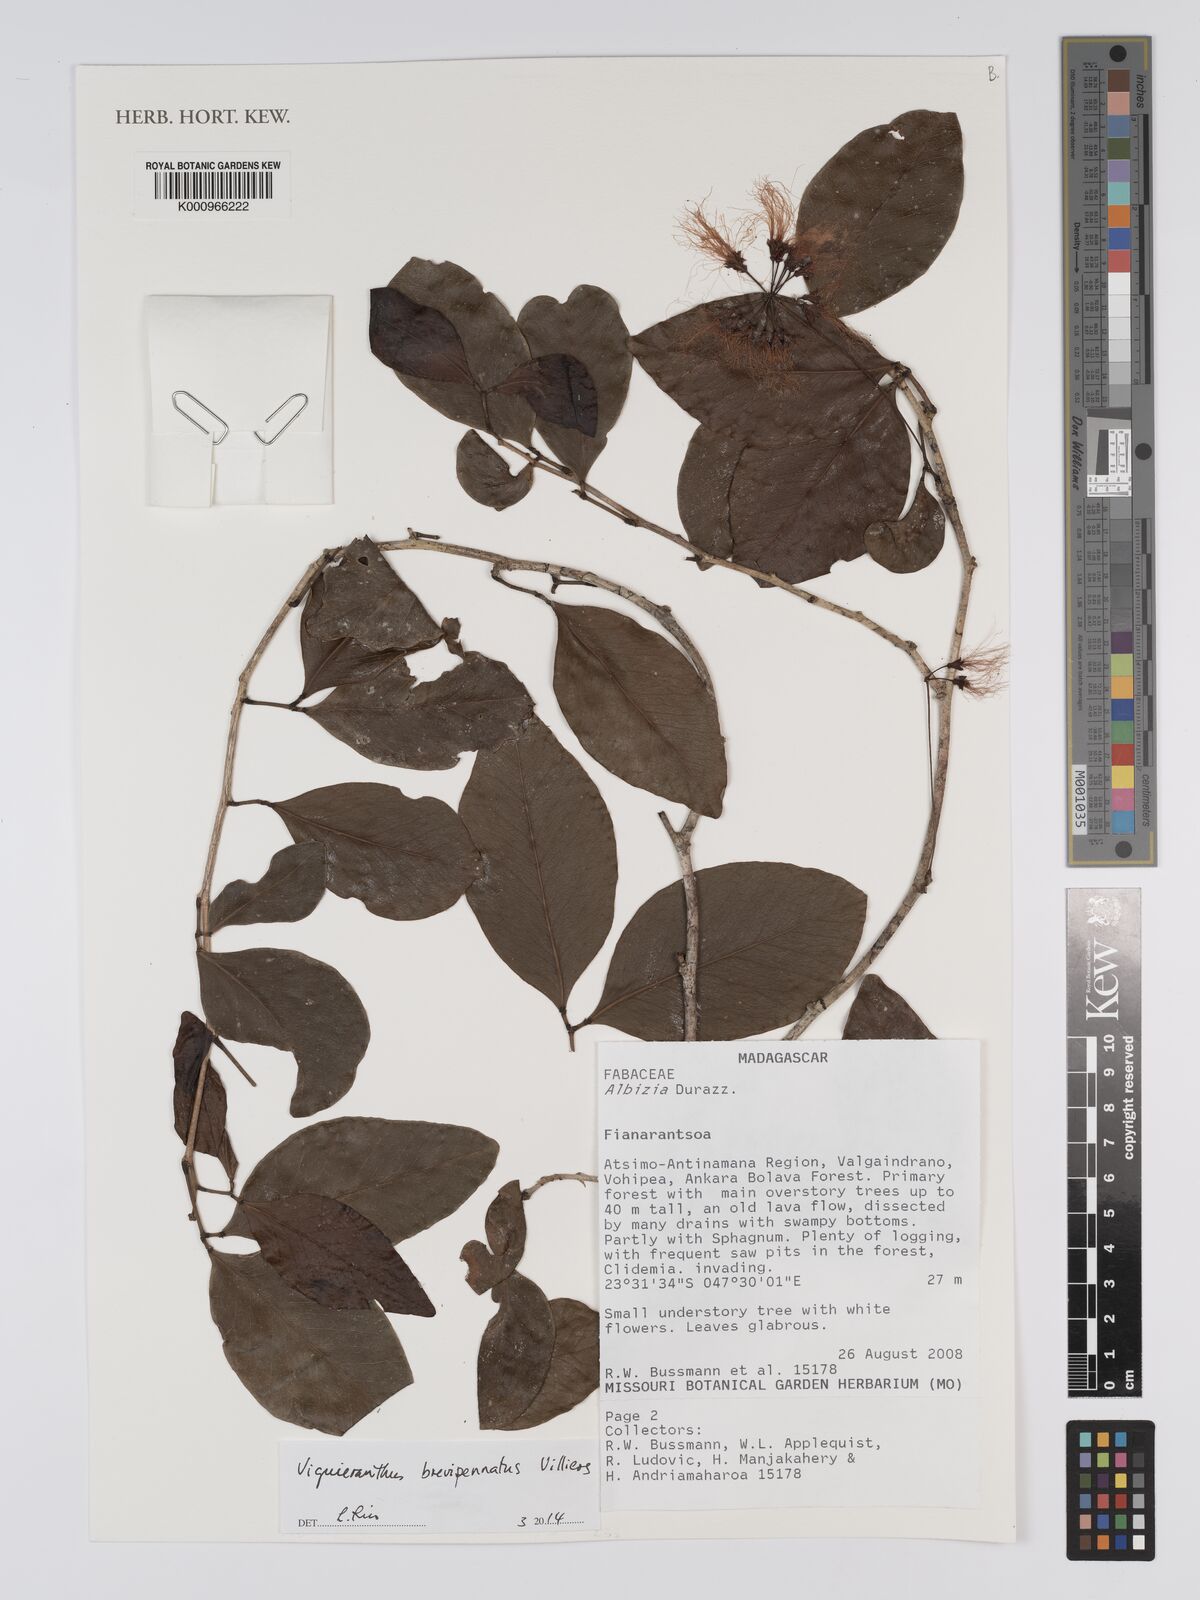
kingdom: Plantae
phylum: Tracheophyta
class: Magnoliopsida
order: Fabales
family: Fabaceae
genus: Viguieranthus
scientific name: Viguieranthus brevipennatus
